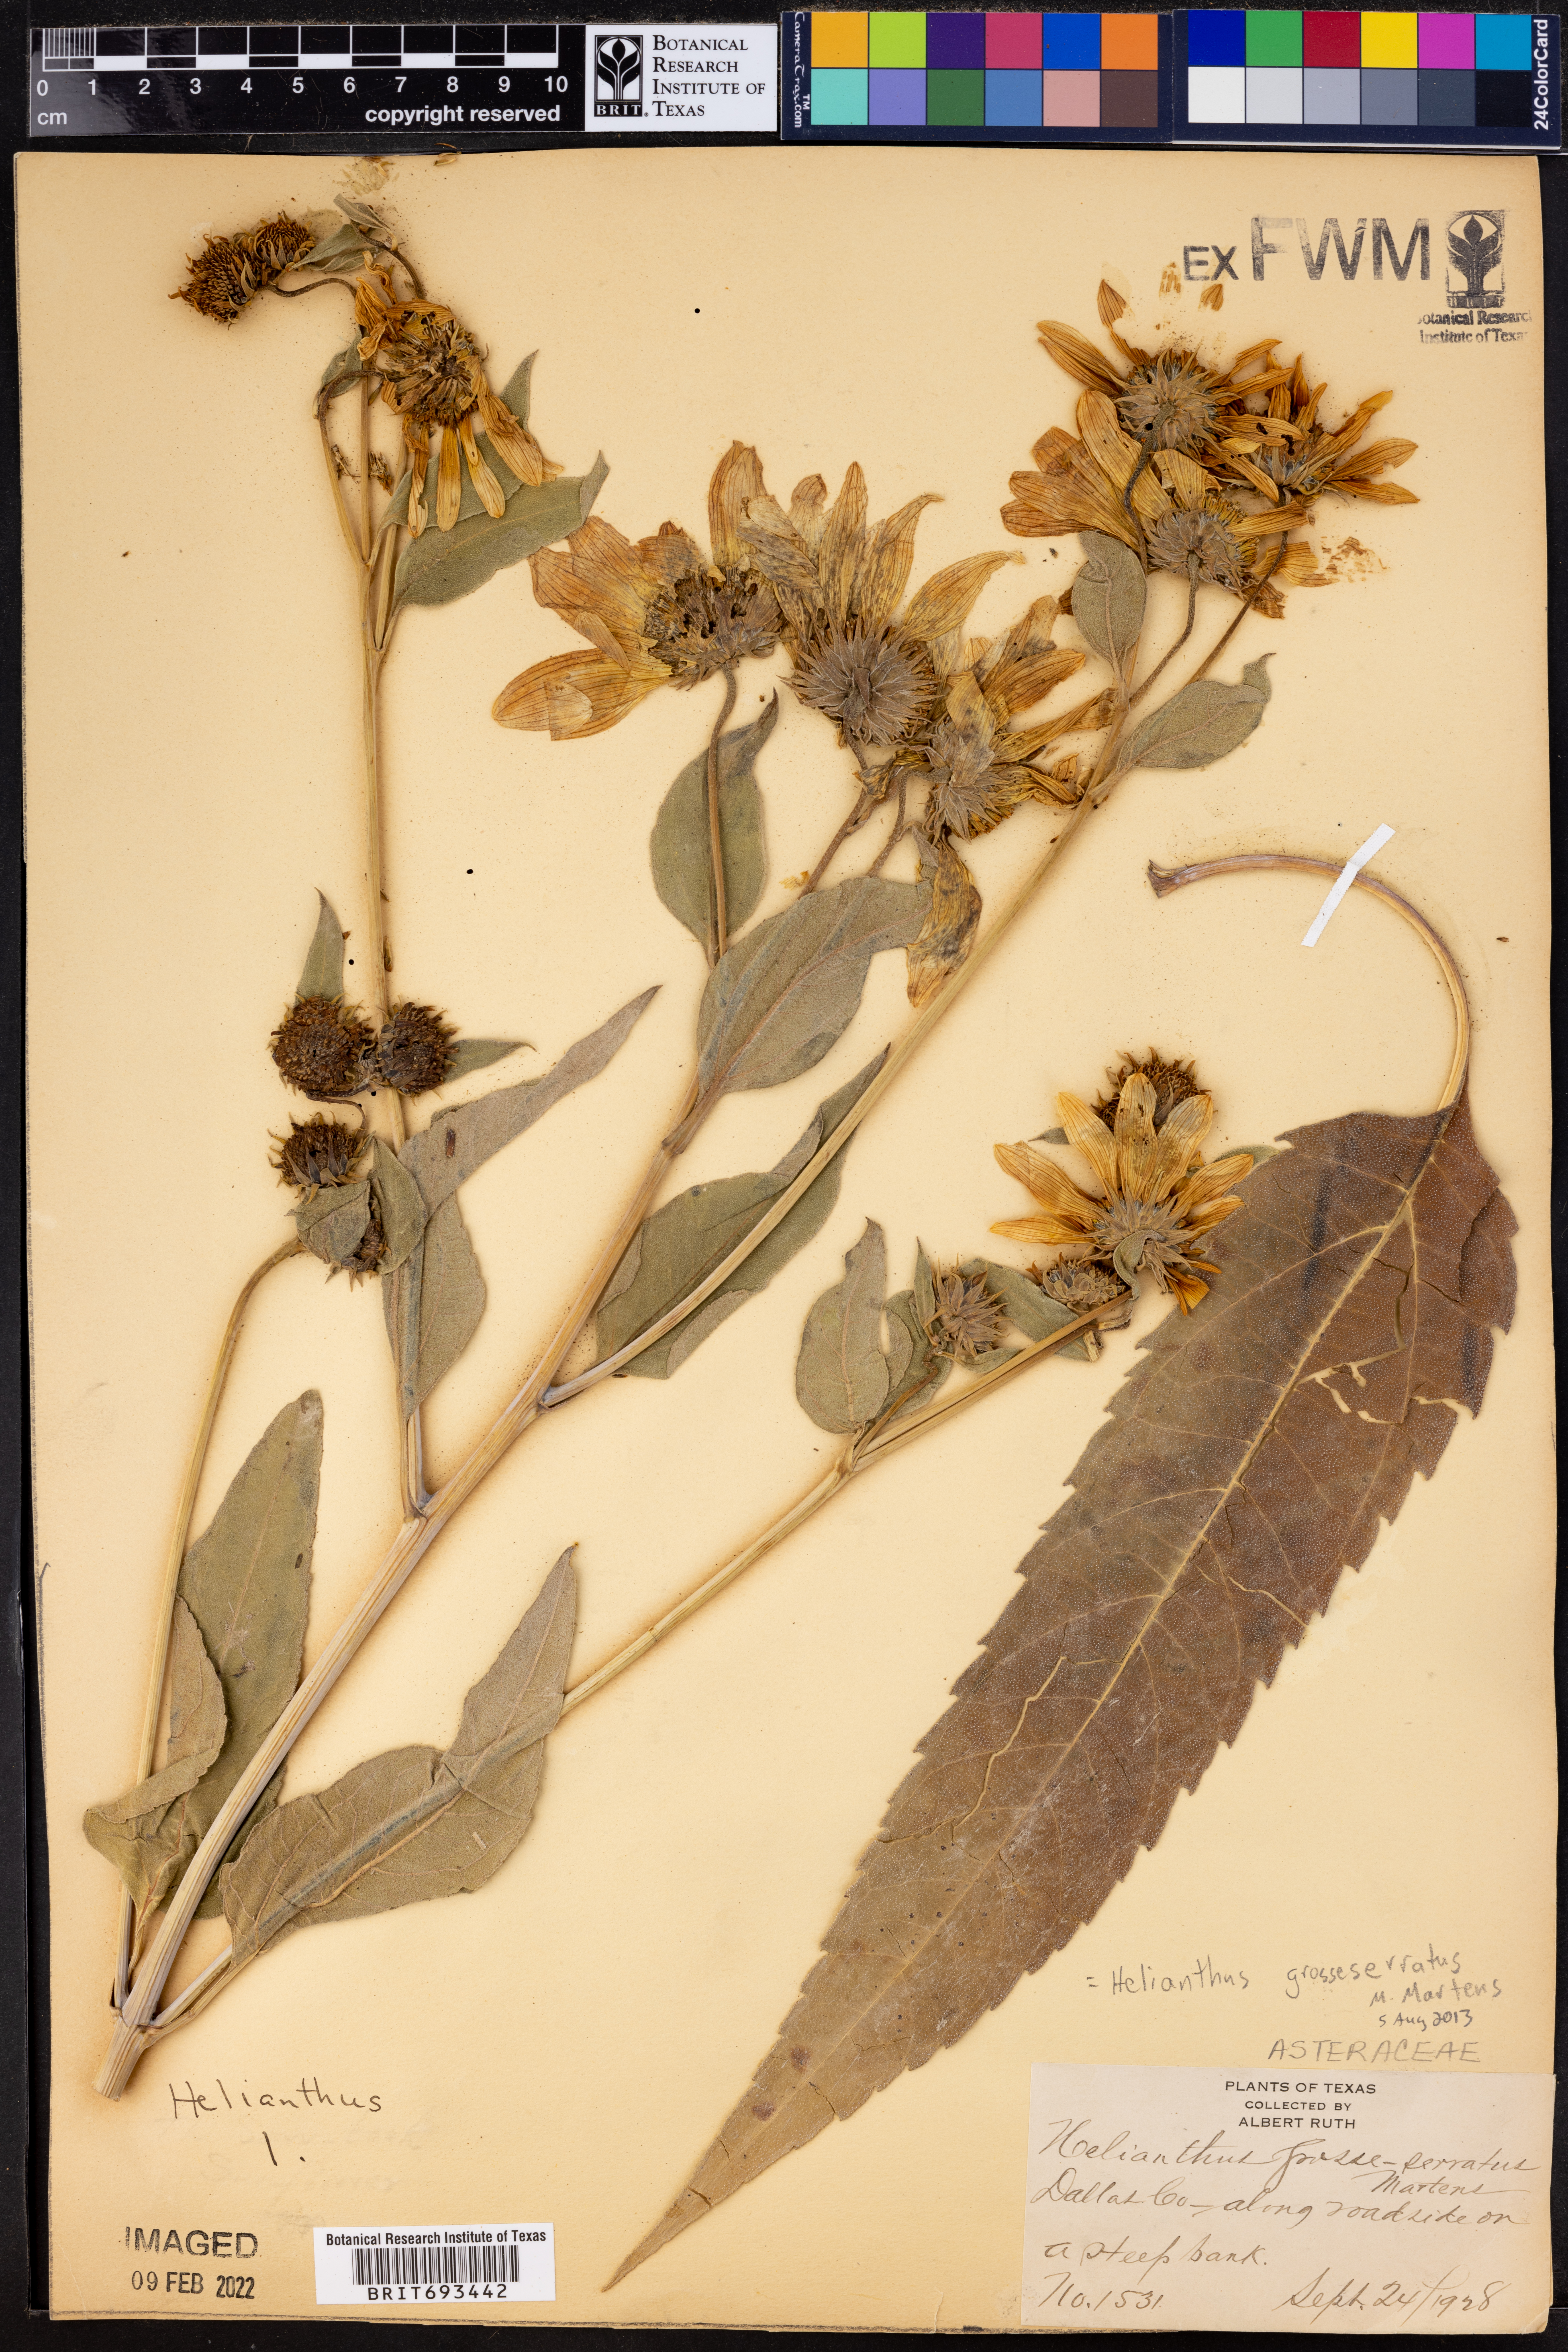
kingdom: Plantae
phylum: Tracheophyta
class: Magnoliopsida
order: Asterales
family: Asteraceae
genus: Helianthus
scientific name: Helianthus grosseserratus
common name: Sawtooth sunflower
